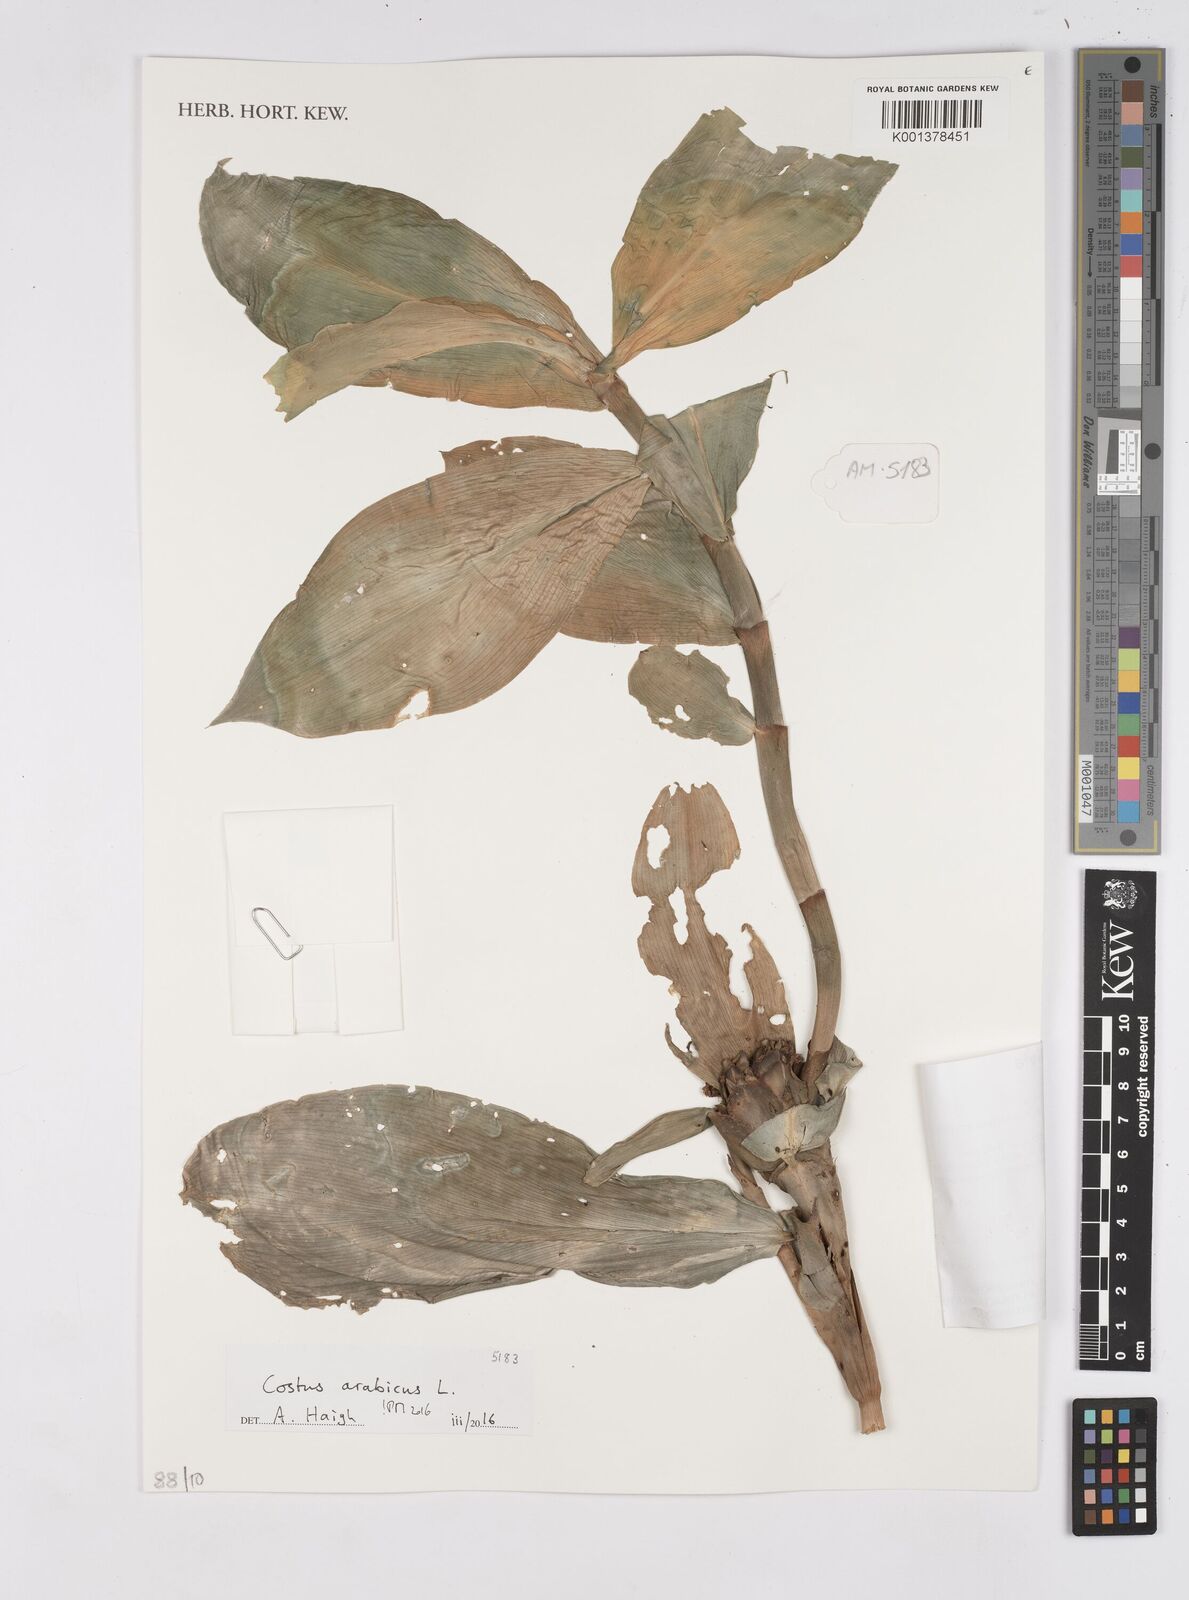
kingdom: Plantae
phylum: Tracheophyta
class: Liliopsida
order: Zingiberales
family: Costaceae
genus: Costus
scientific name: Costus arabicus
